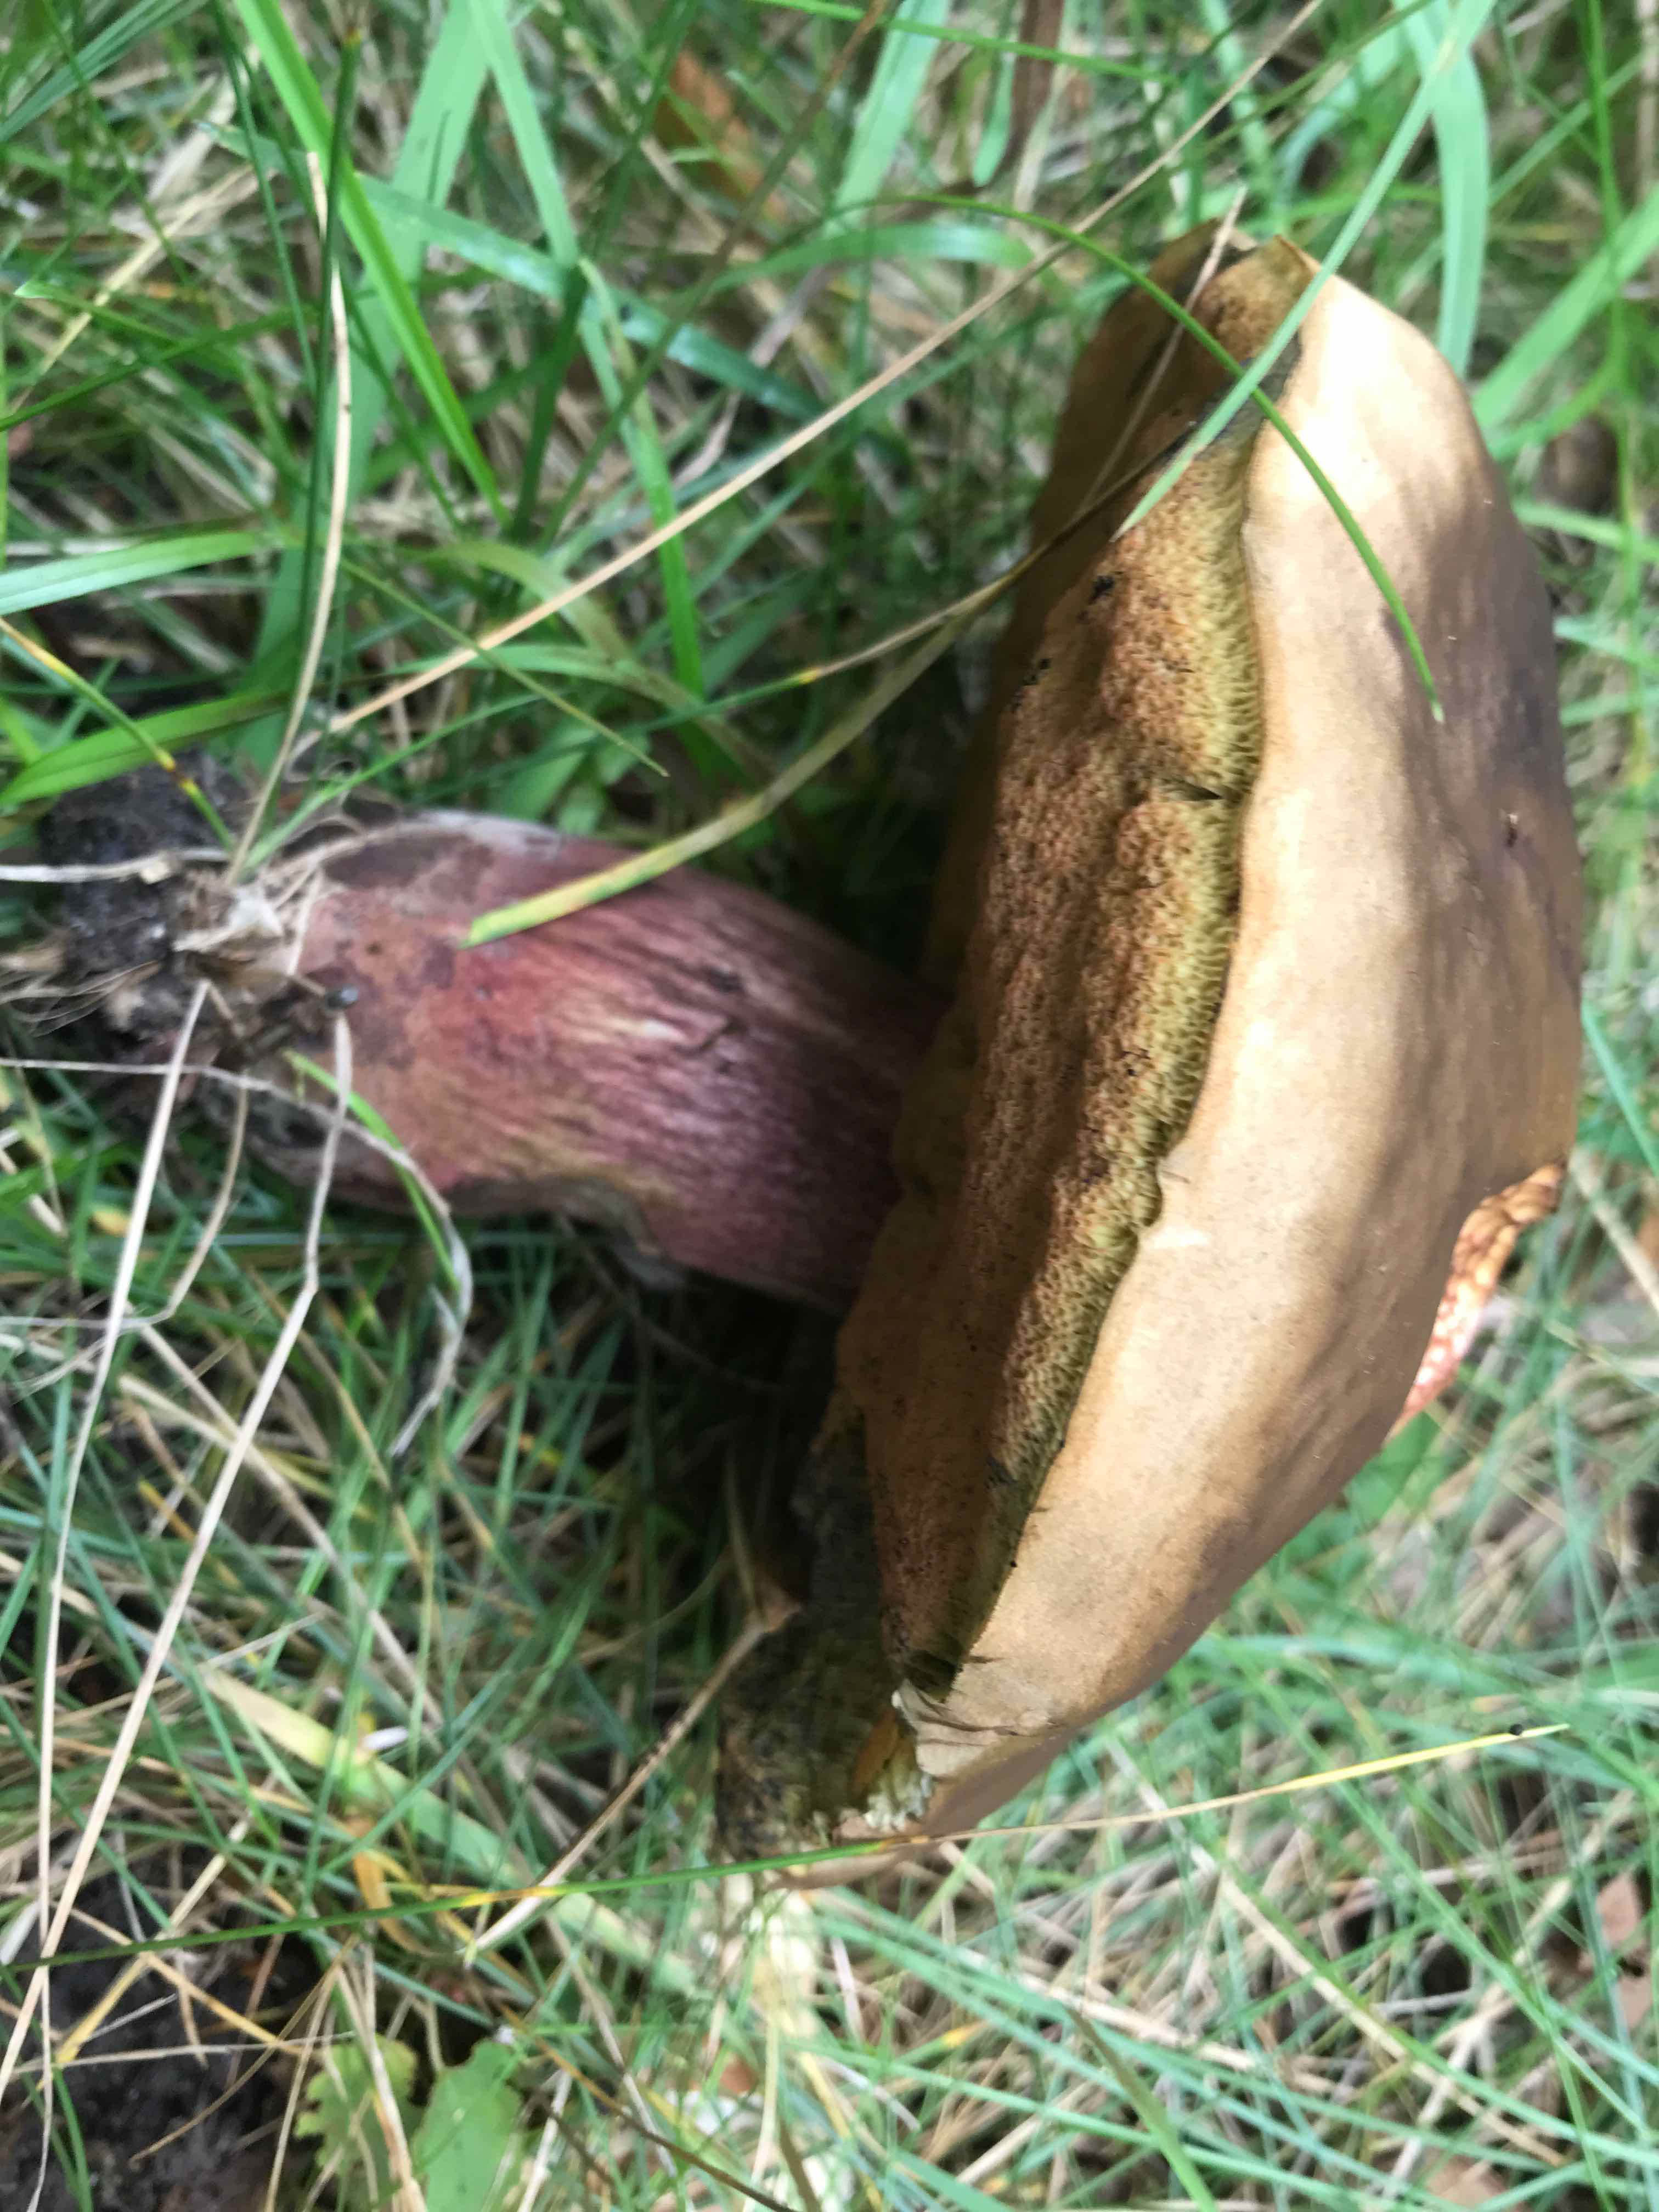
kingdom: Fungi
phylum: Basidiomycota
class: Agaricomycetes
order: Boletales
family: Boletaceae
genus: Suillellus
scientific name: Suillellus luridus
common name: netstokket indigorørhat
